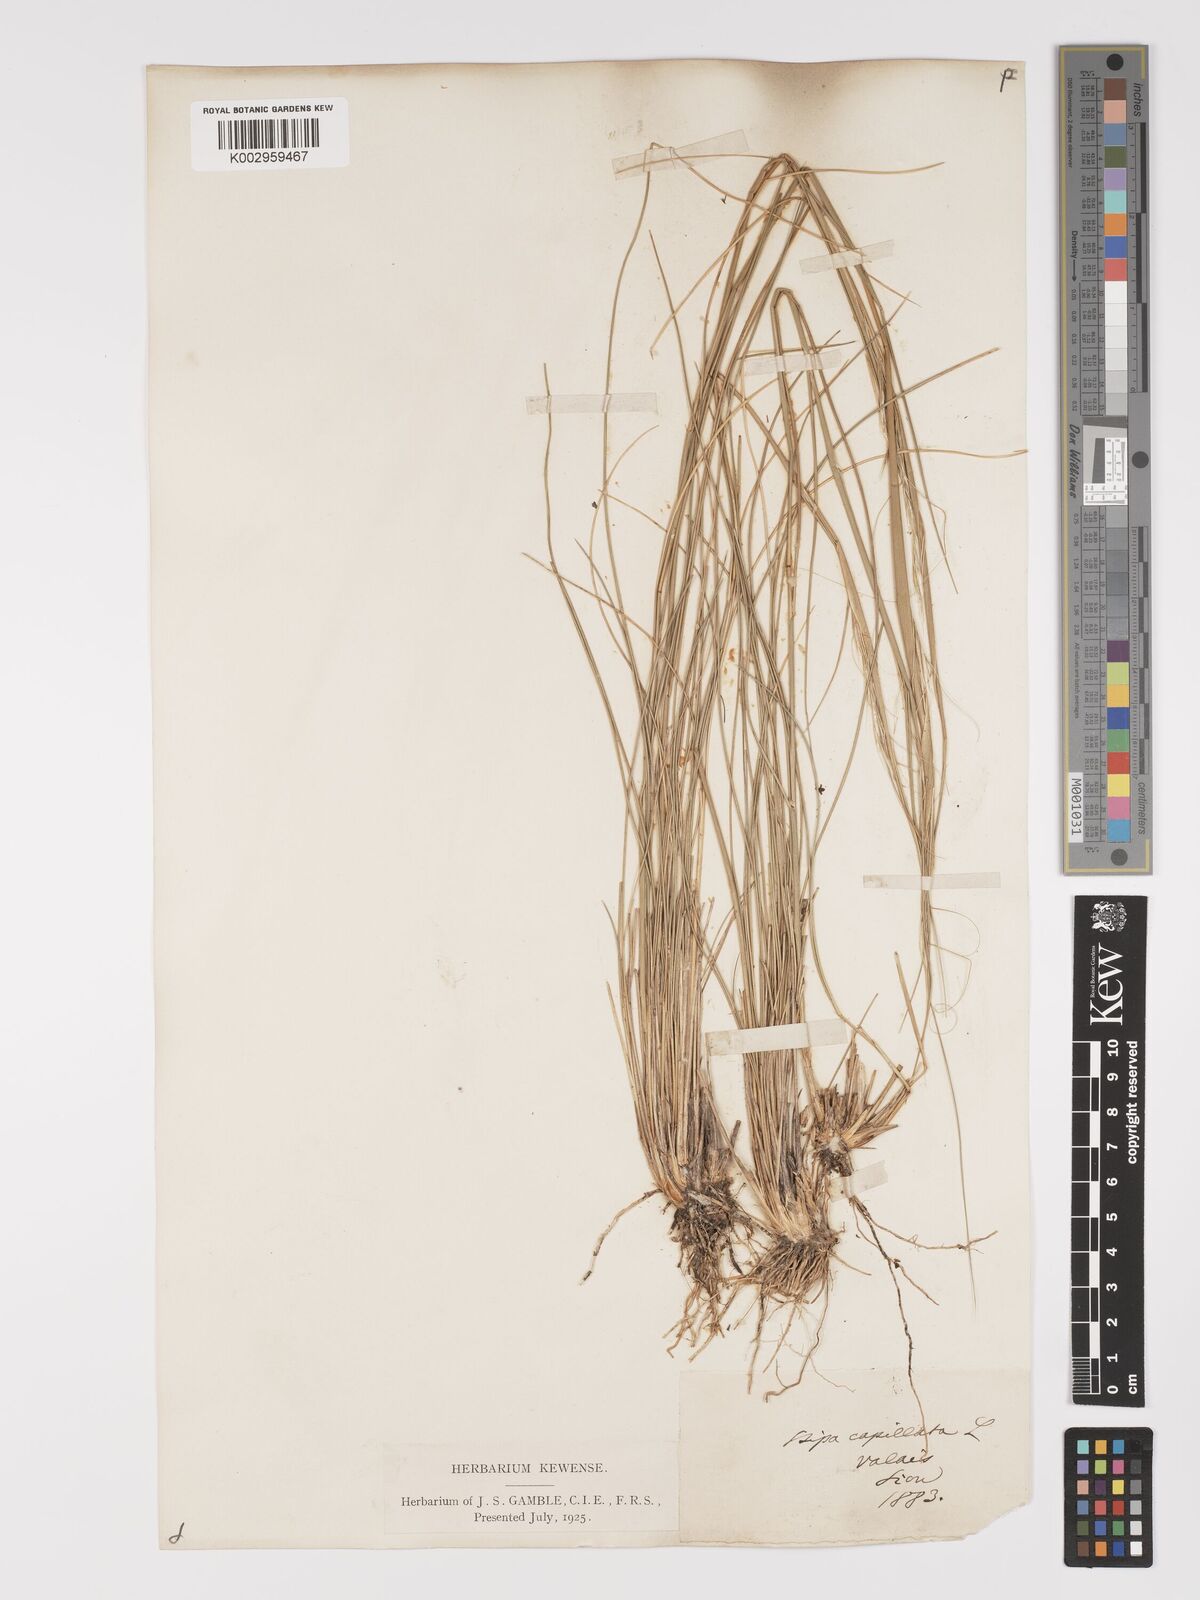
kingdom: Plantae
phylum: Tracheophyta
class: Liliopsida
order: Poales
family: Poaceae
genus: Stipa
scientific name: Stipa capillata
